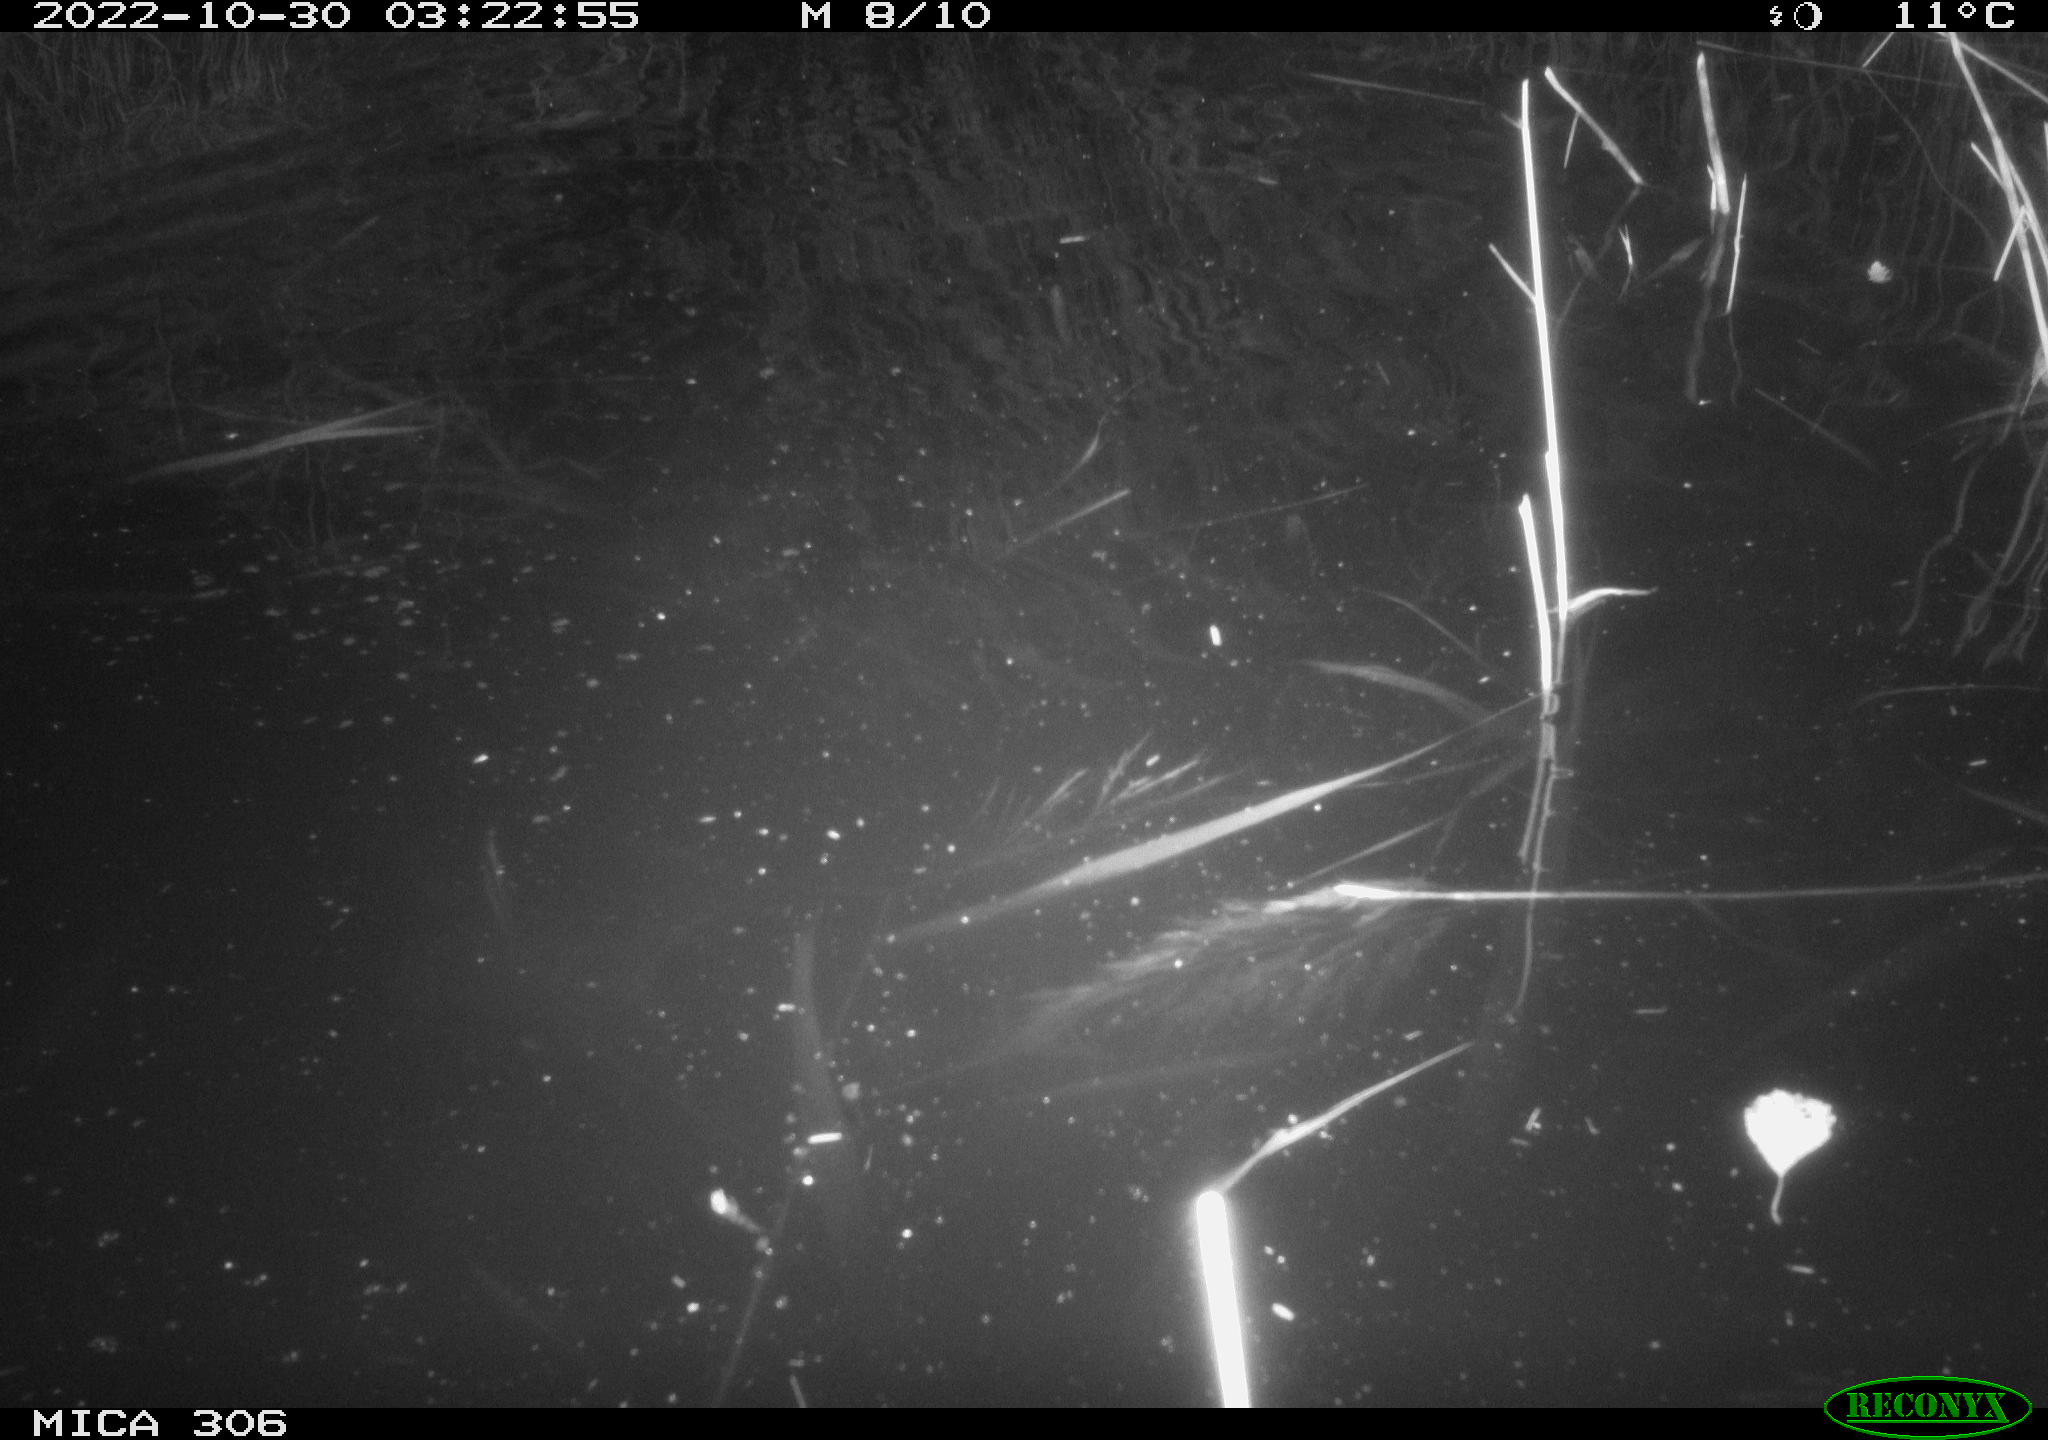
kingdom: Animalia
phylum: Chordata
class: Mammalia
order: Rodentia
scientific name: Rodentia
